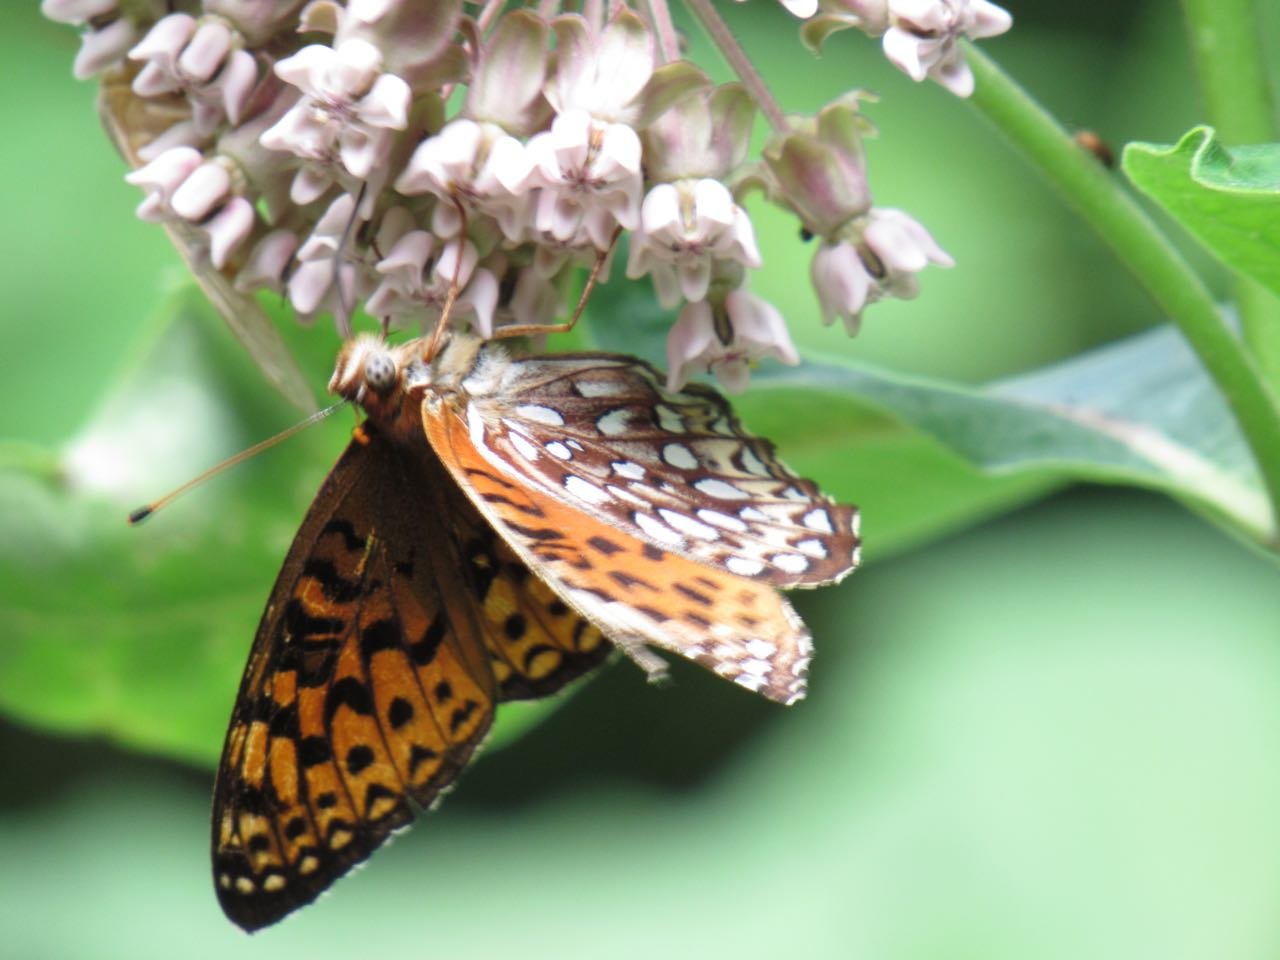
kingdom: Animalia
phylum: Arthropoda
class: Insecta
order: Lepidoptera
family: Nymphalidae
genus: Speyeria
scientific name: Speyeria atlantis
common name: Atlantis Fritillary
